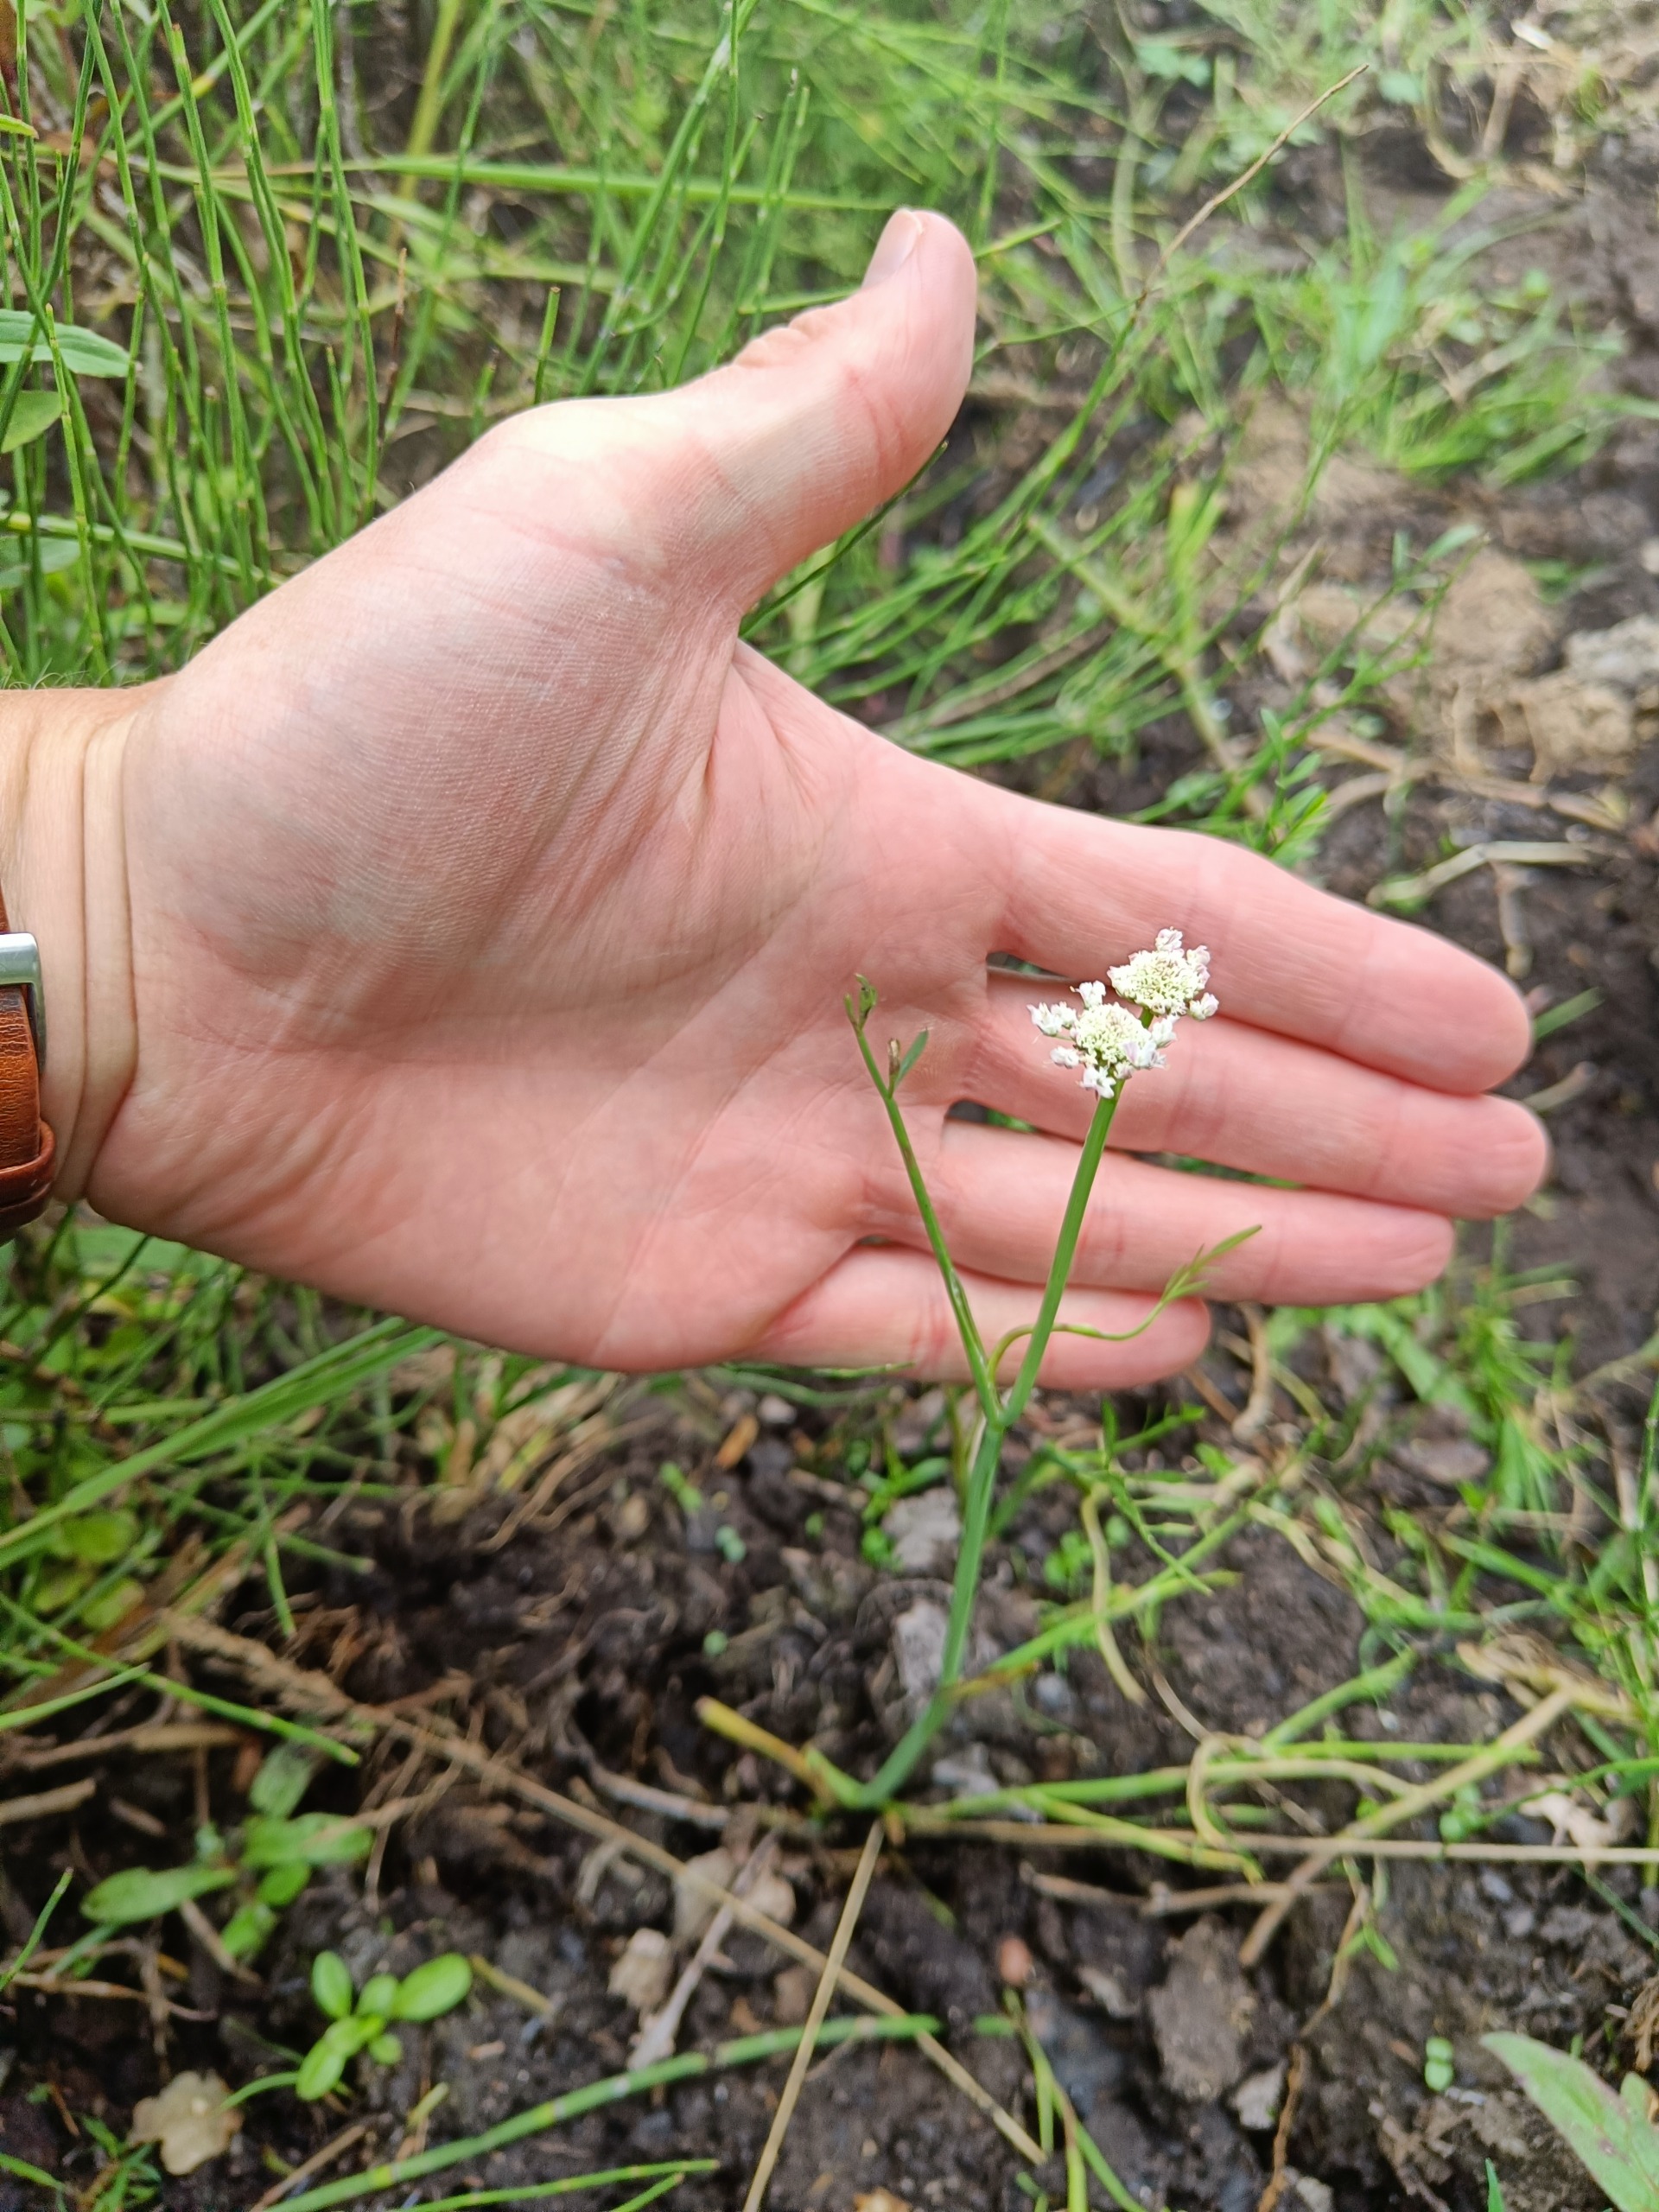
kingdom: Plantae
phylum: Tracheophyta
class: Magnoliopsida
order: Apiales
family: Apiaceae
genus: Oenanthe
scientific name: Oenanthe fistulosa
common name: Vand-klaseskærm
